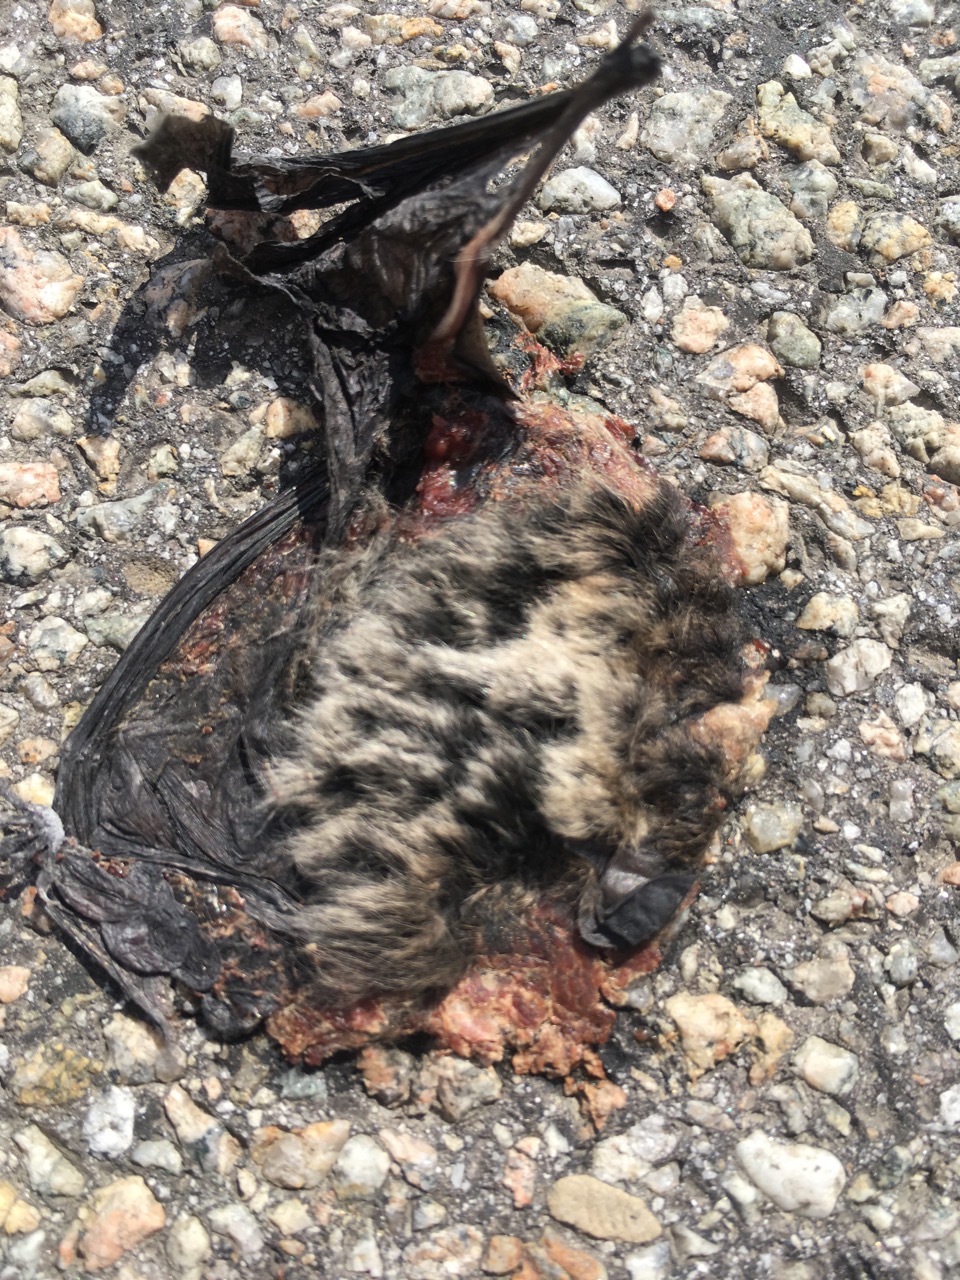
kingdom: Animalia
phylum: Chordata
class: Mammalia
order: Chiroptera
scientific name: Chiroptera
